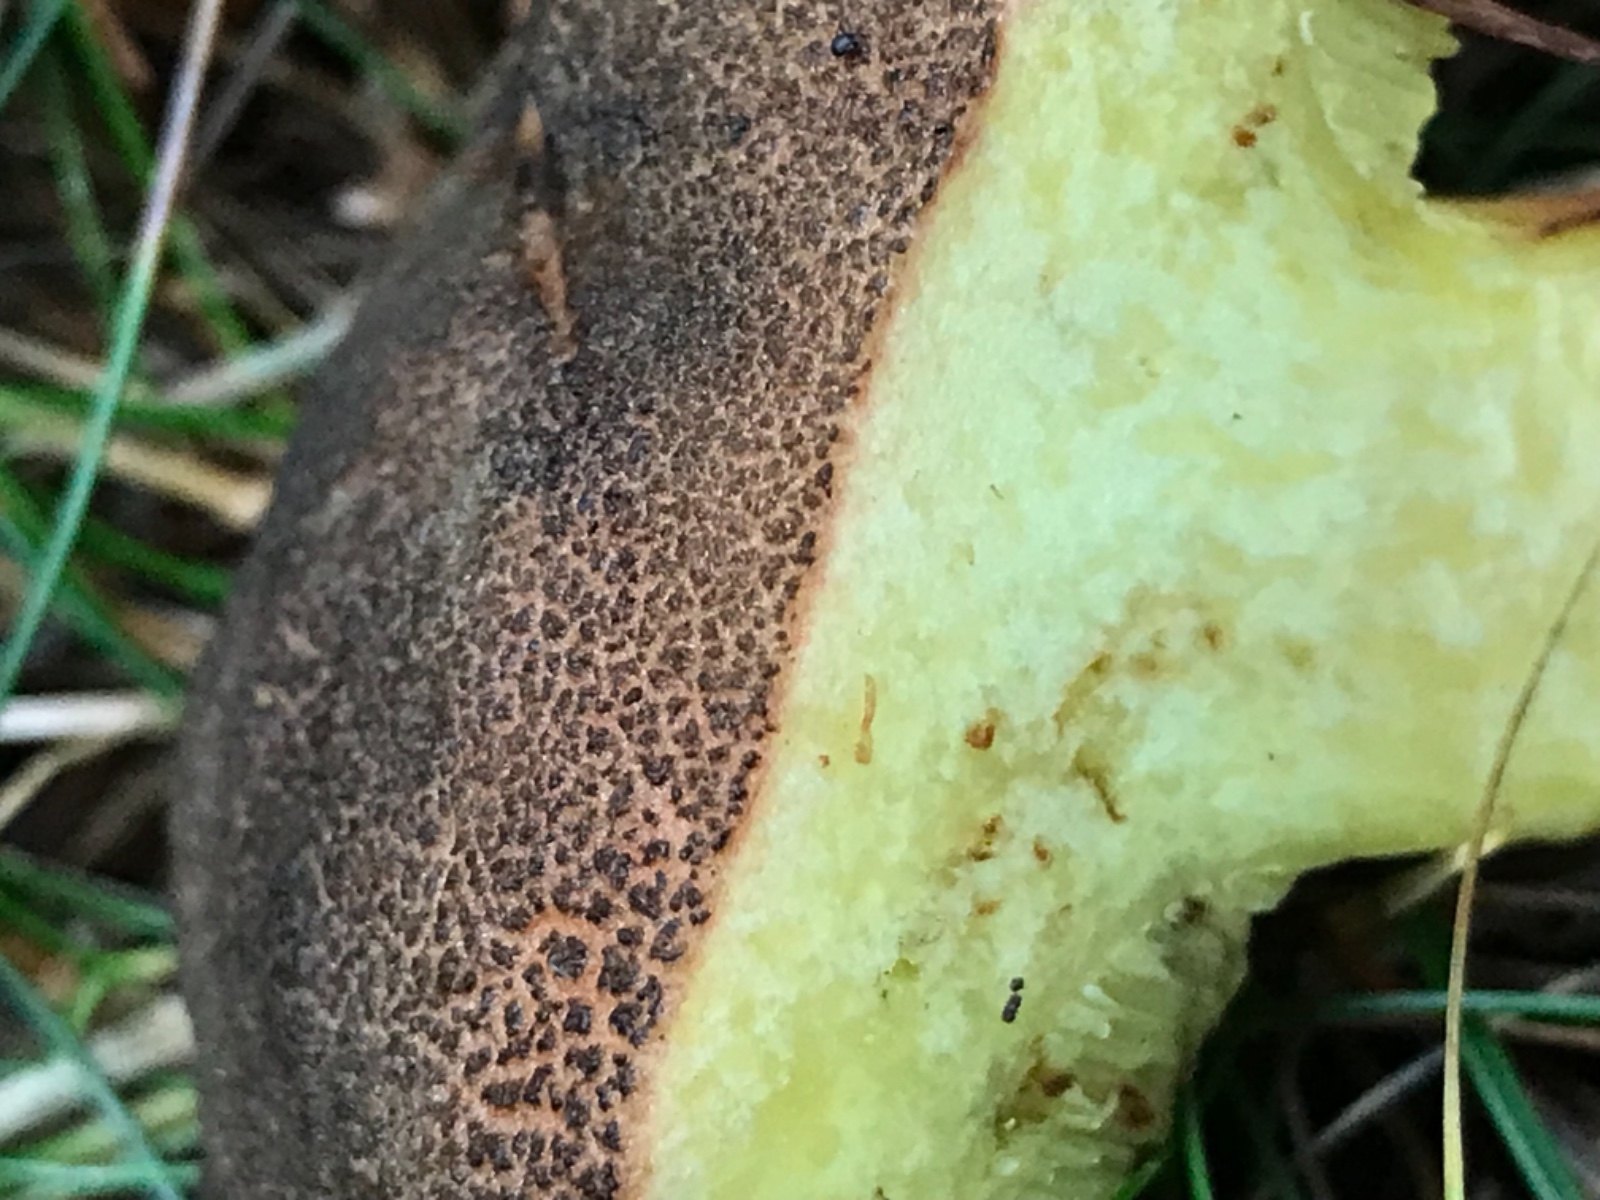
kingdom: Fungi
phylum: Basidiomycota
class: Agaricomycetes
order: Boletales
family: Boletaceae
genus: Xerocomellus
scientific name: Xerocomellus
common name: dværgrørhat
